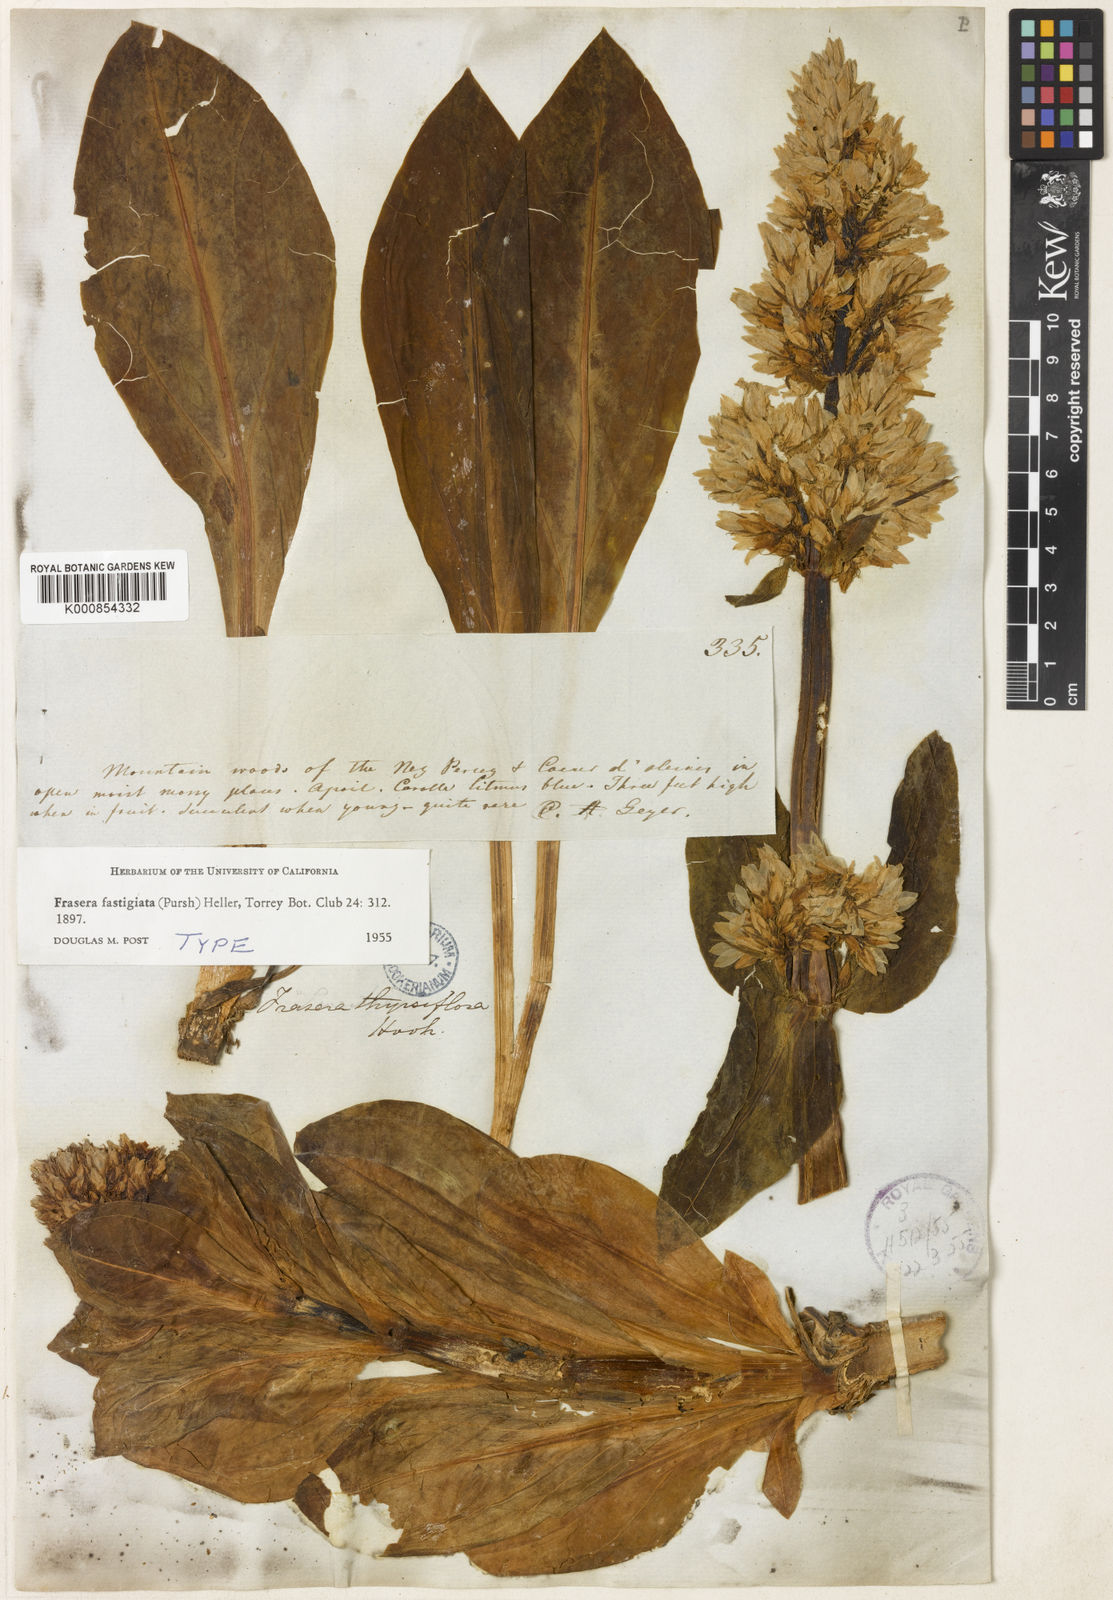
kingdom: Plantae
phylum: Tracheophyta
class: Magnoliopsida
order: Gentianales
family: Gentianaceae
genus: Frasera
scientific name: Frasera fastigiata
